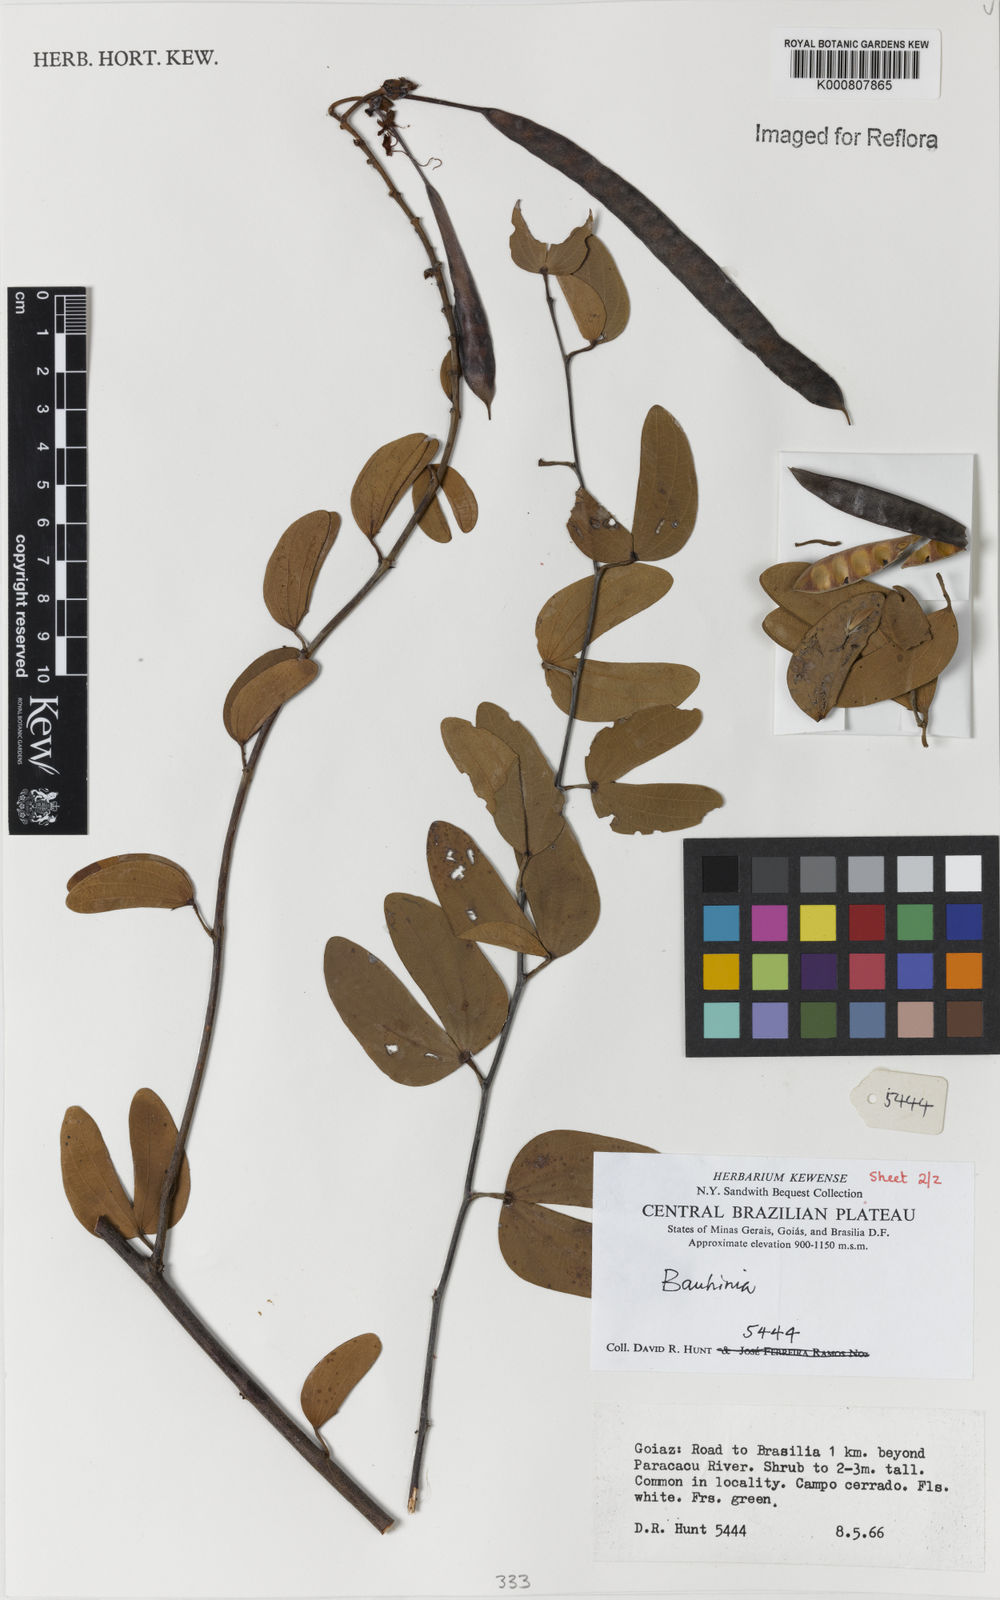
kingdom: Plantae
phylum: Tracheophyta
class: Magnoliopsida
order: Fabales
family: Fabaceae
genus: Bauhinia
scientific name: Bauhinia
